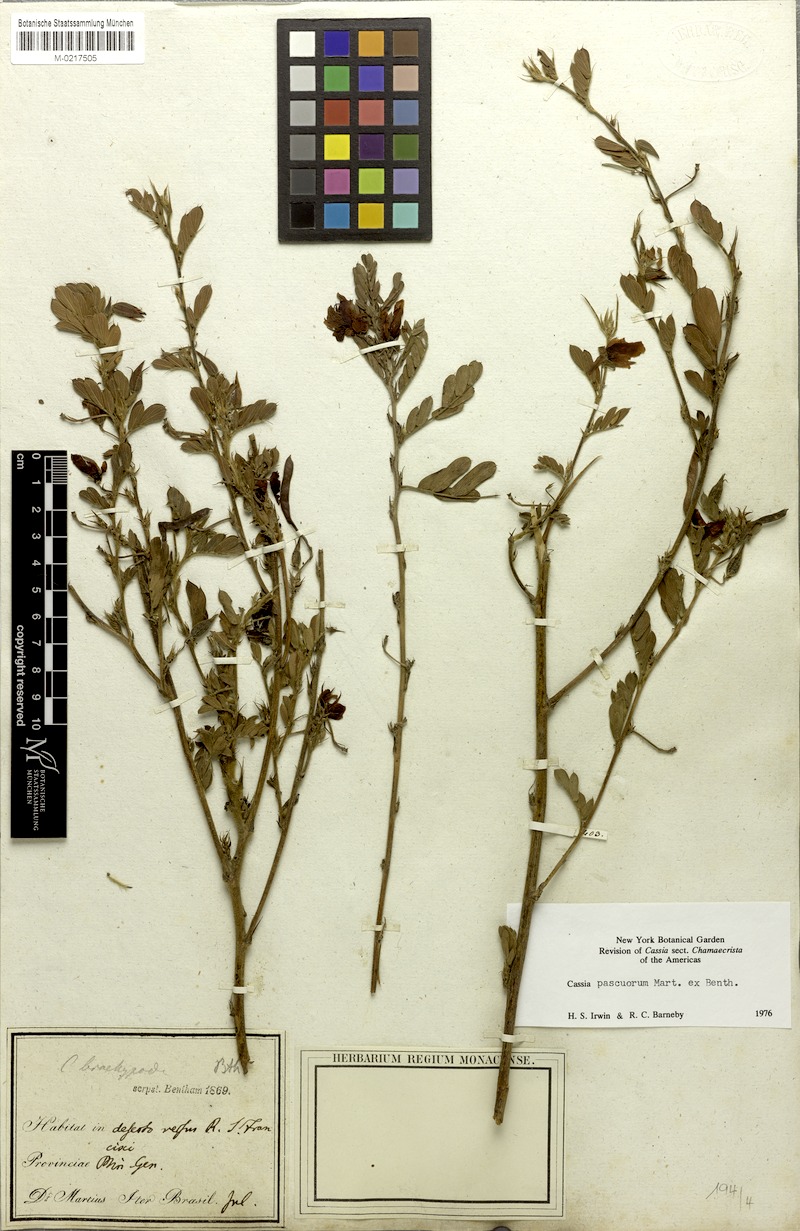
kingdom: Plantae
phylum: Tracheophyta
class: Magnoliopsida
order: Fabales
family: Fabaceae
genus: Chamaecrista
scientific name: Chamaecrista pascuorum
